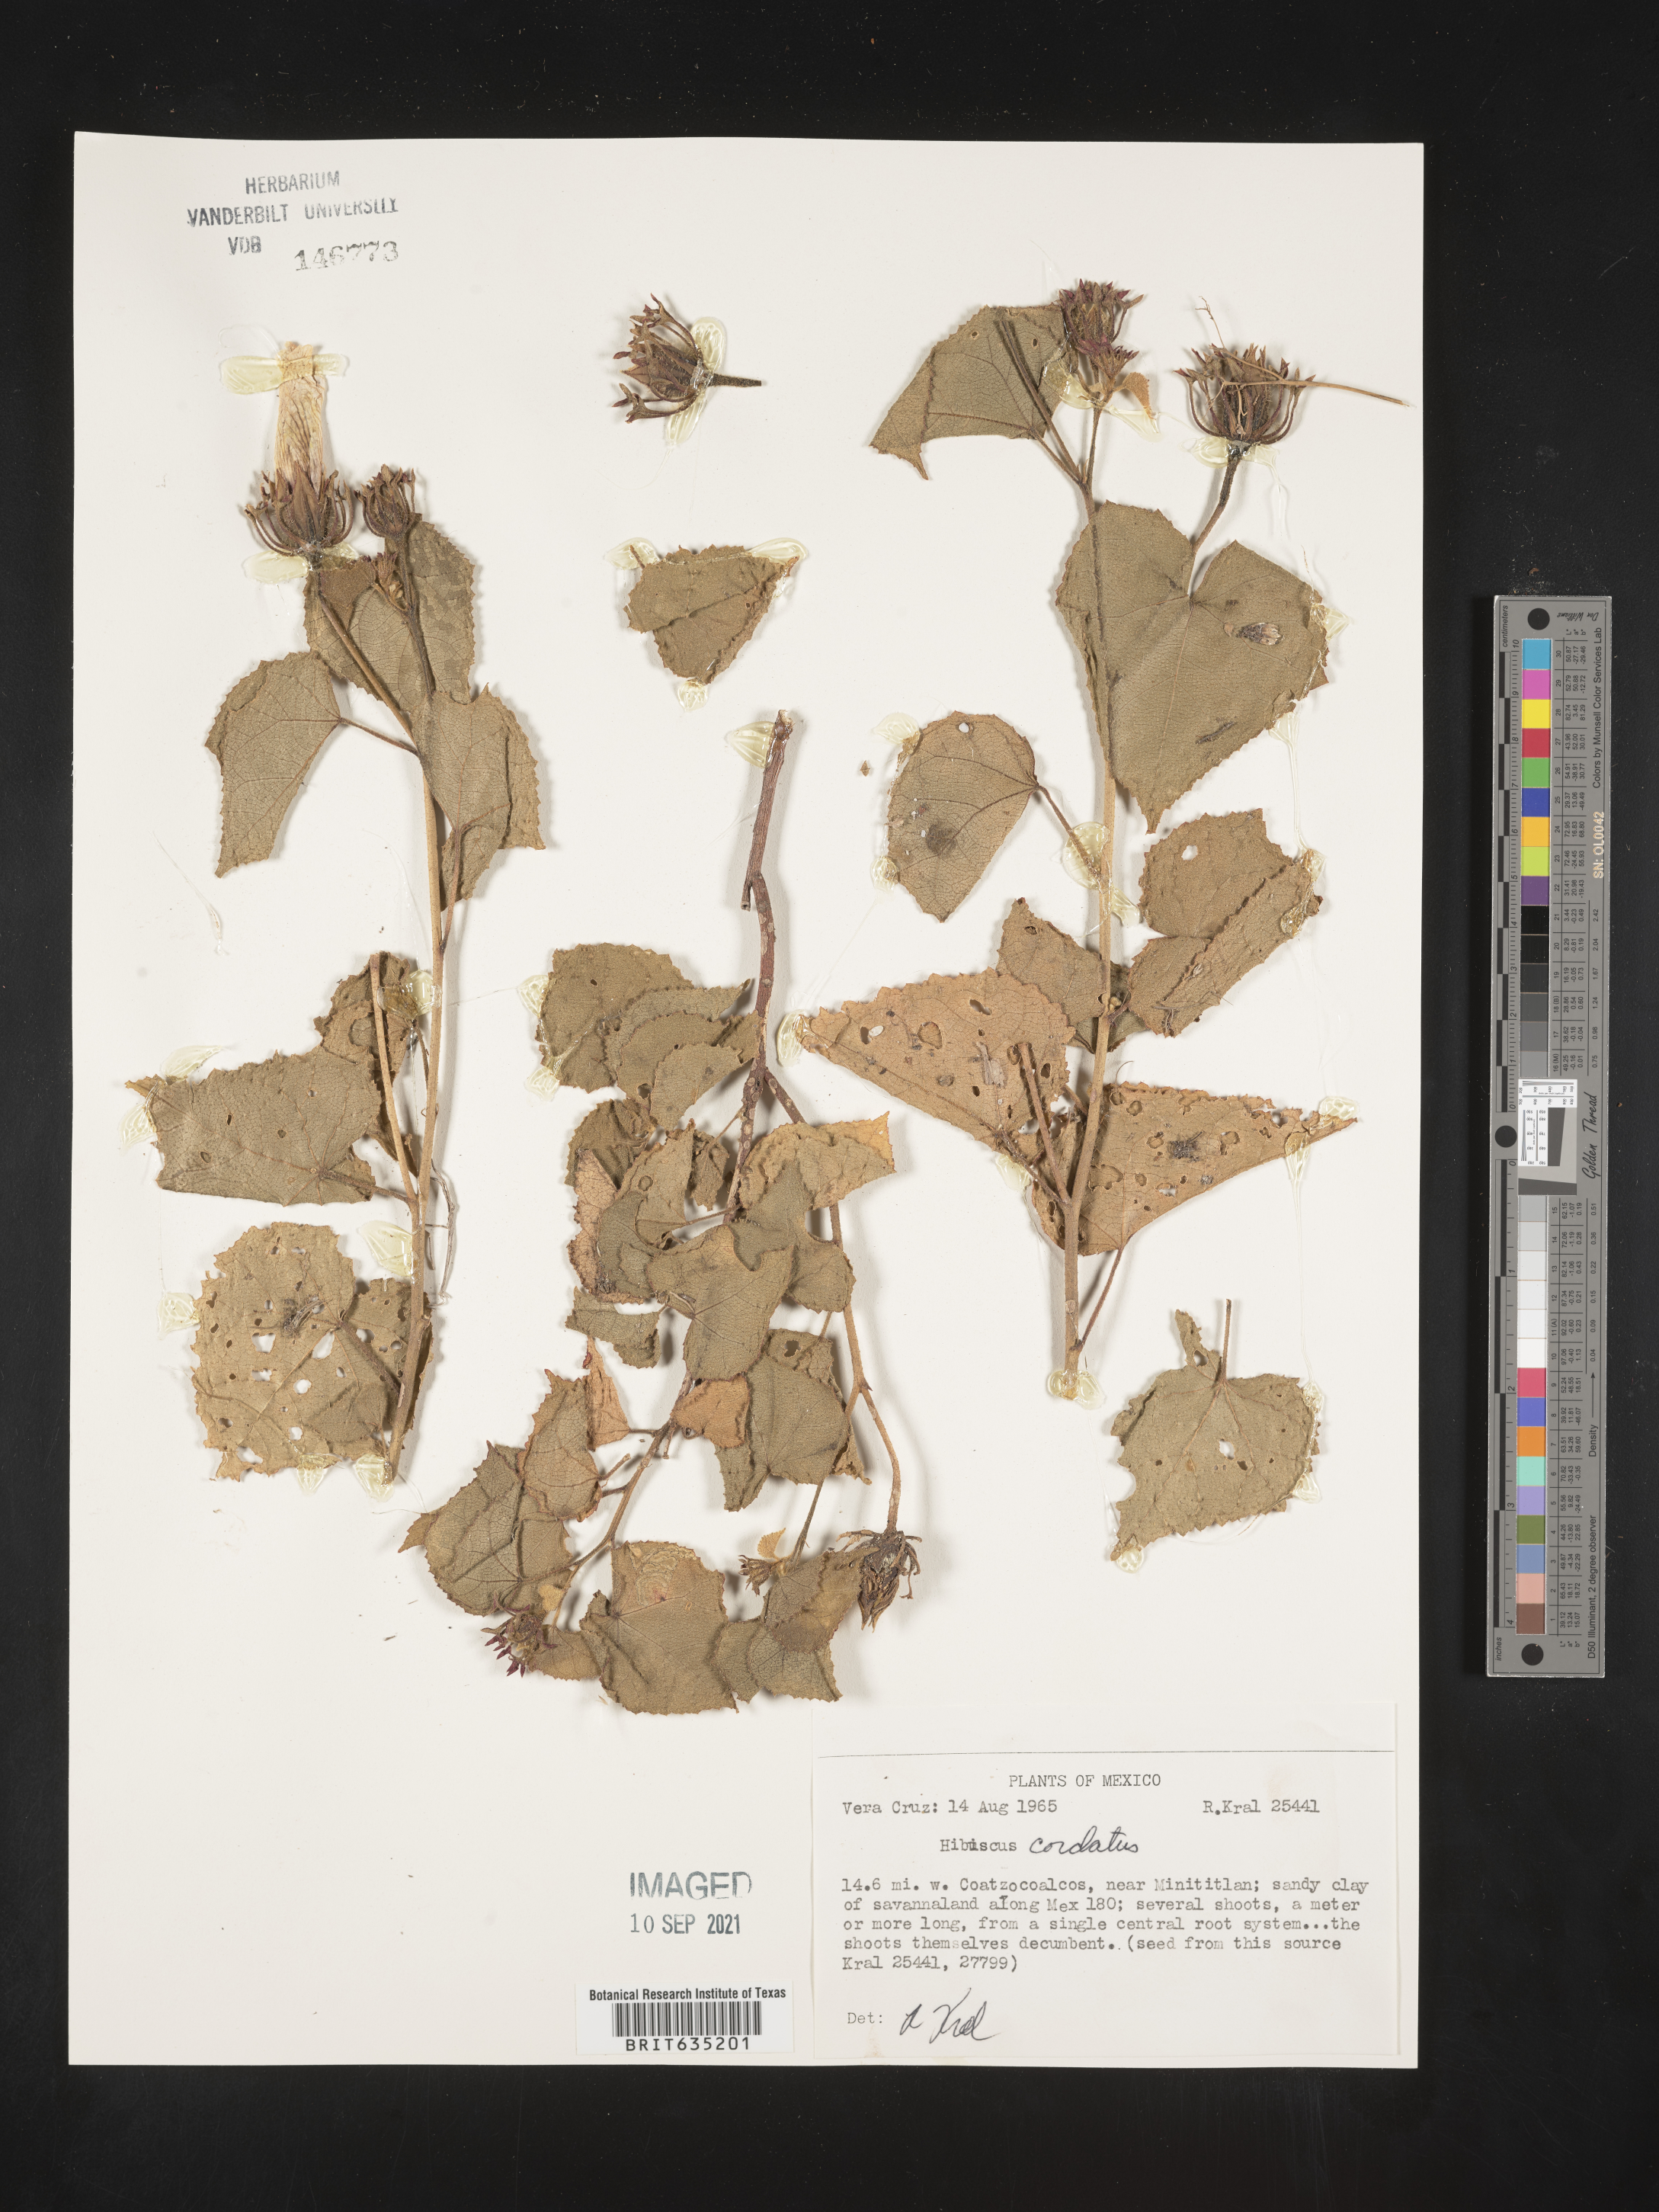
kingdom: Plantae
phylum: Tracheophyta
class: Magnoliopsida
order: Malvales
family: Malvaceae
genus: Hibiscus
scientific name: Hibiscus
